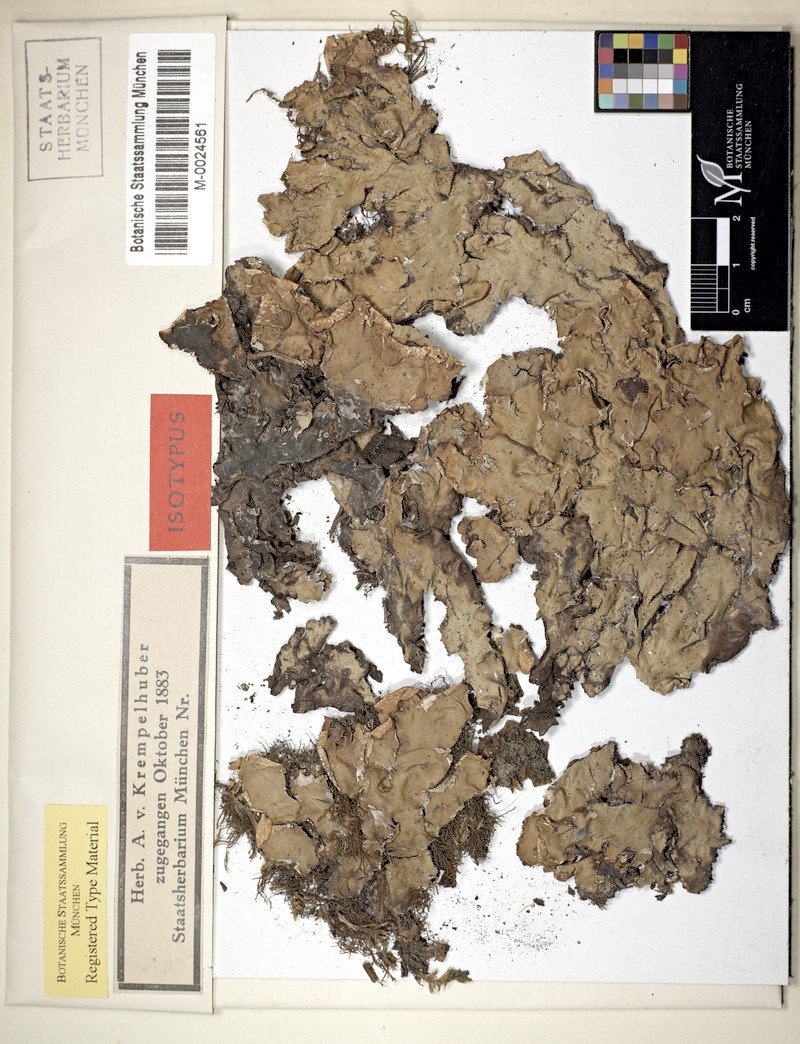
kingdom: Fungi
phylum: Ascomycota
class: Lecanoromycetes
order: Peltigerales
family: Peltigeraceae
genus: Peltigera
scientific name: Peltigera zahlbruckneri
